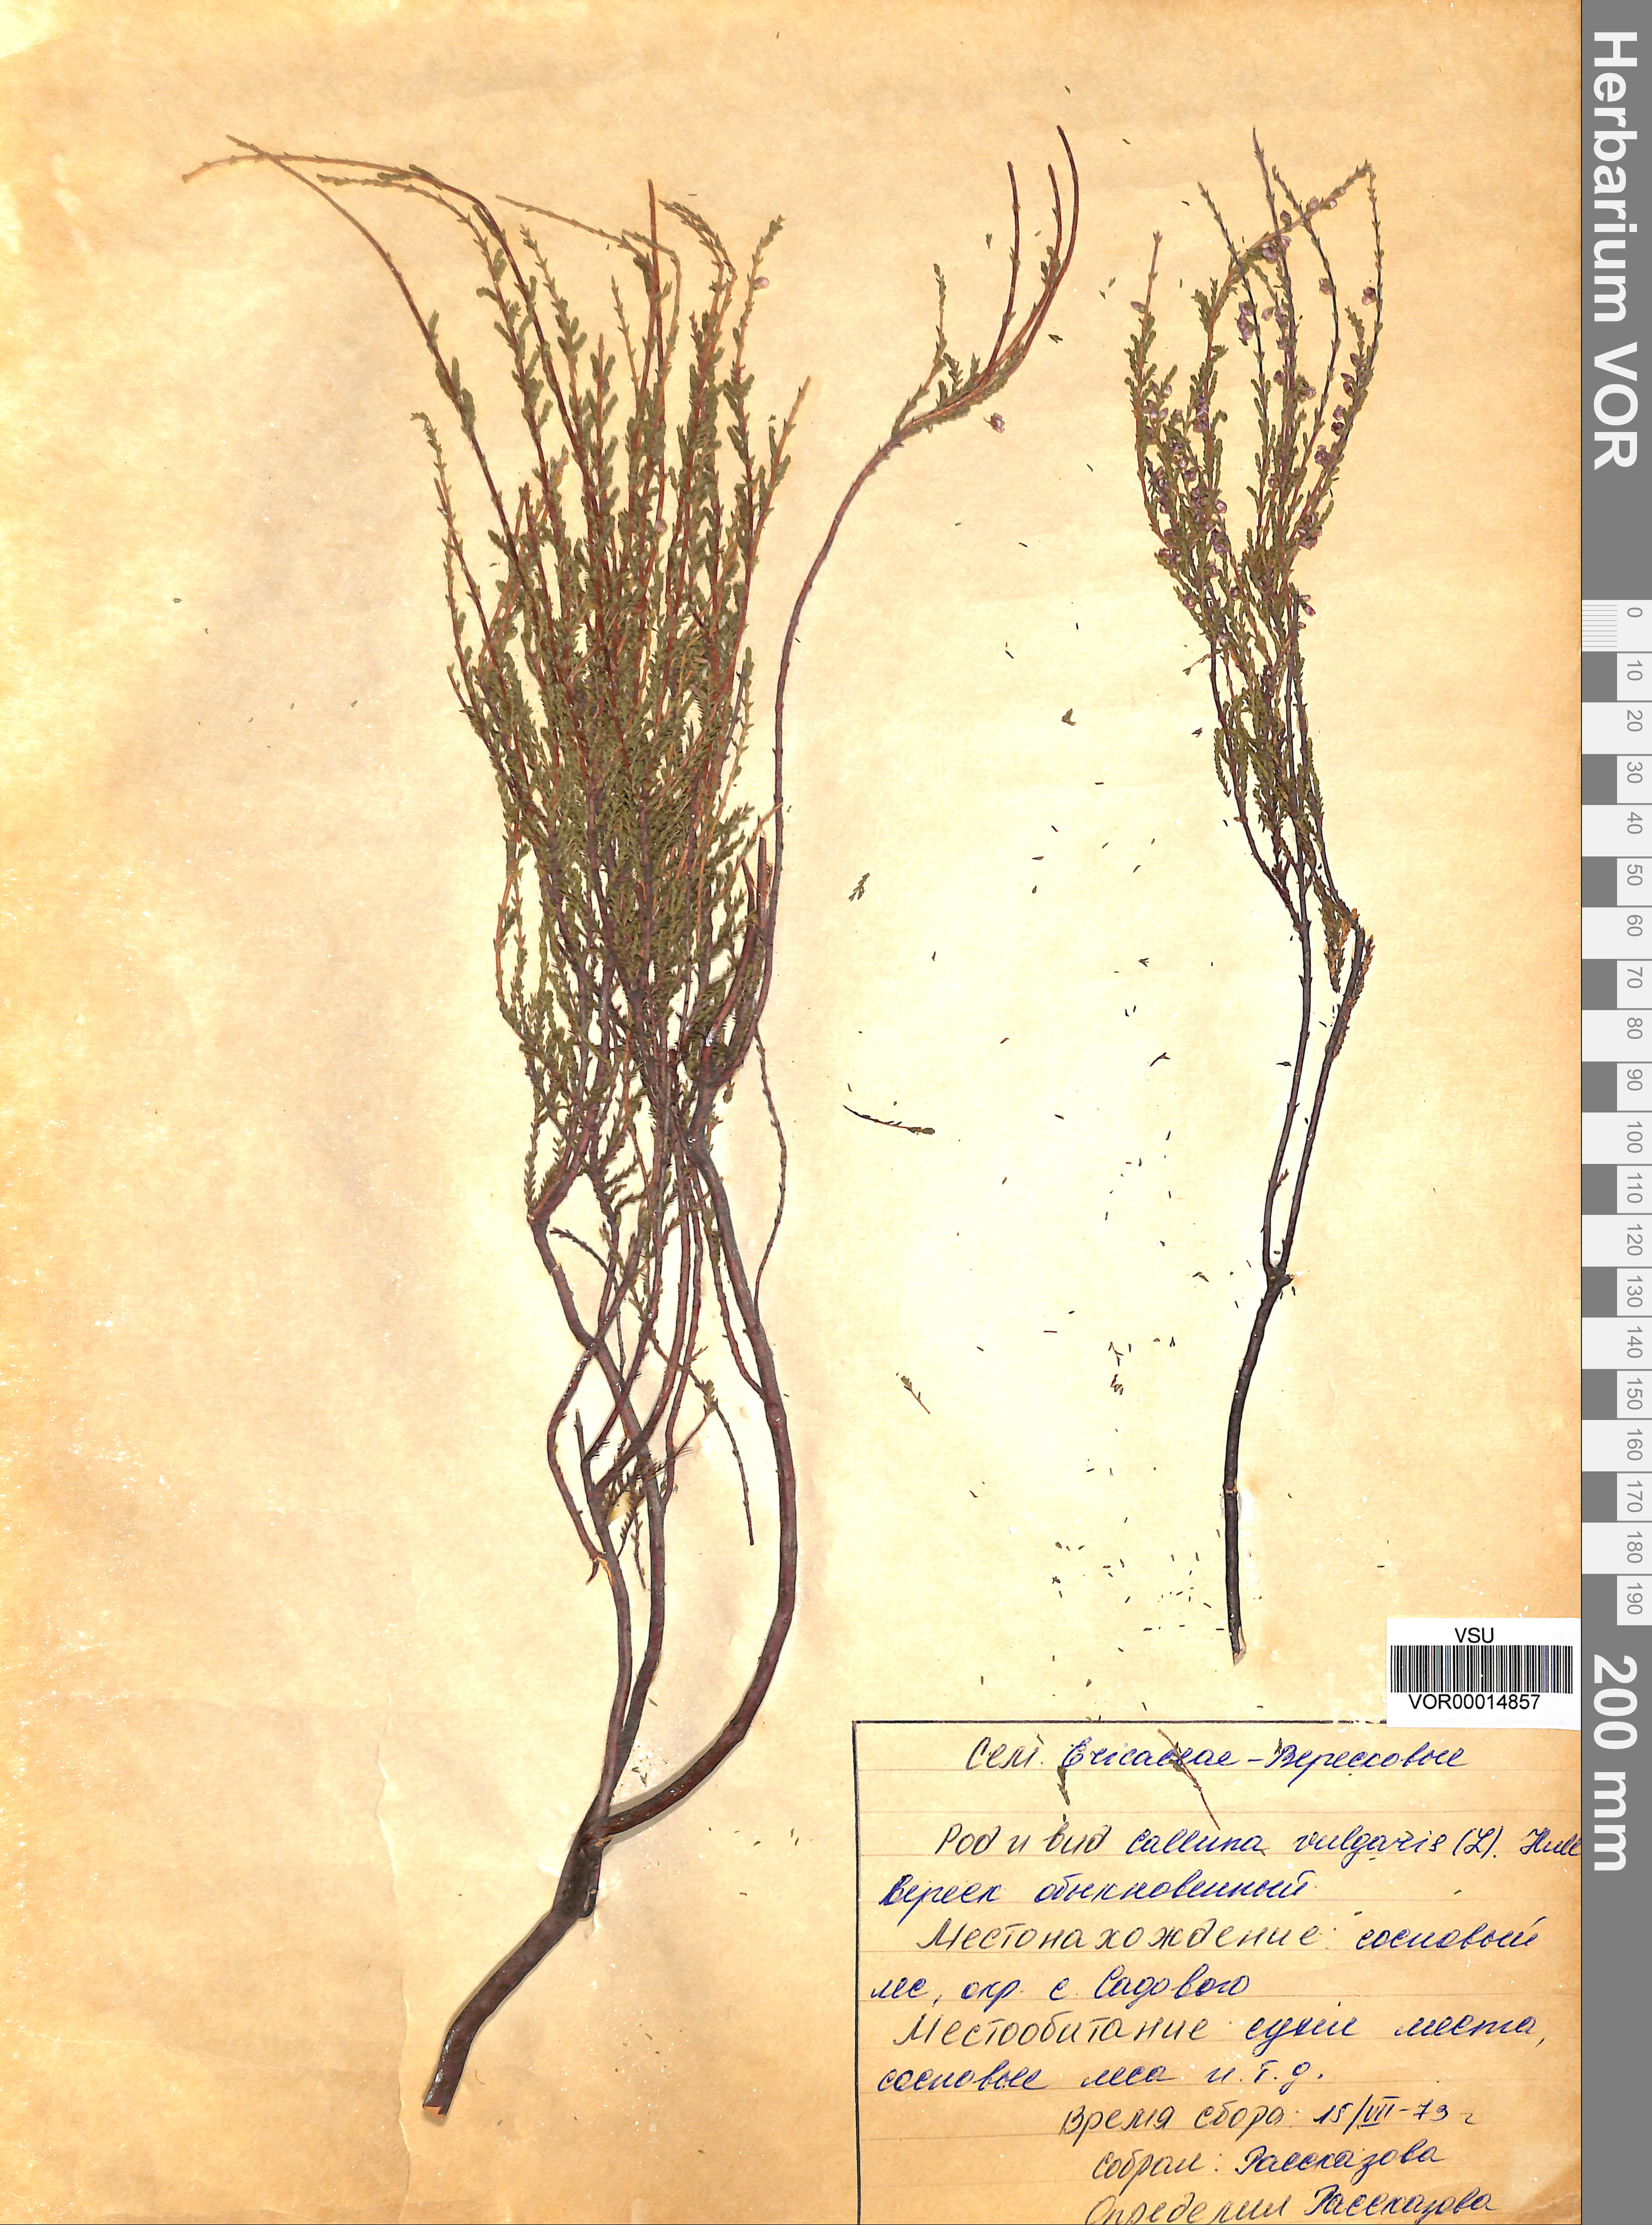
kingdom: Plantae
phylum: Tracheophyta
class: Magnoliopsida
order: Ericales
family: Ericaceae
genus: Calluna
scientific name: Calluna vulgaris
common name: Heather
